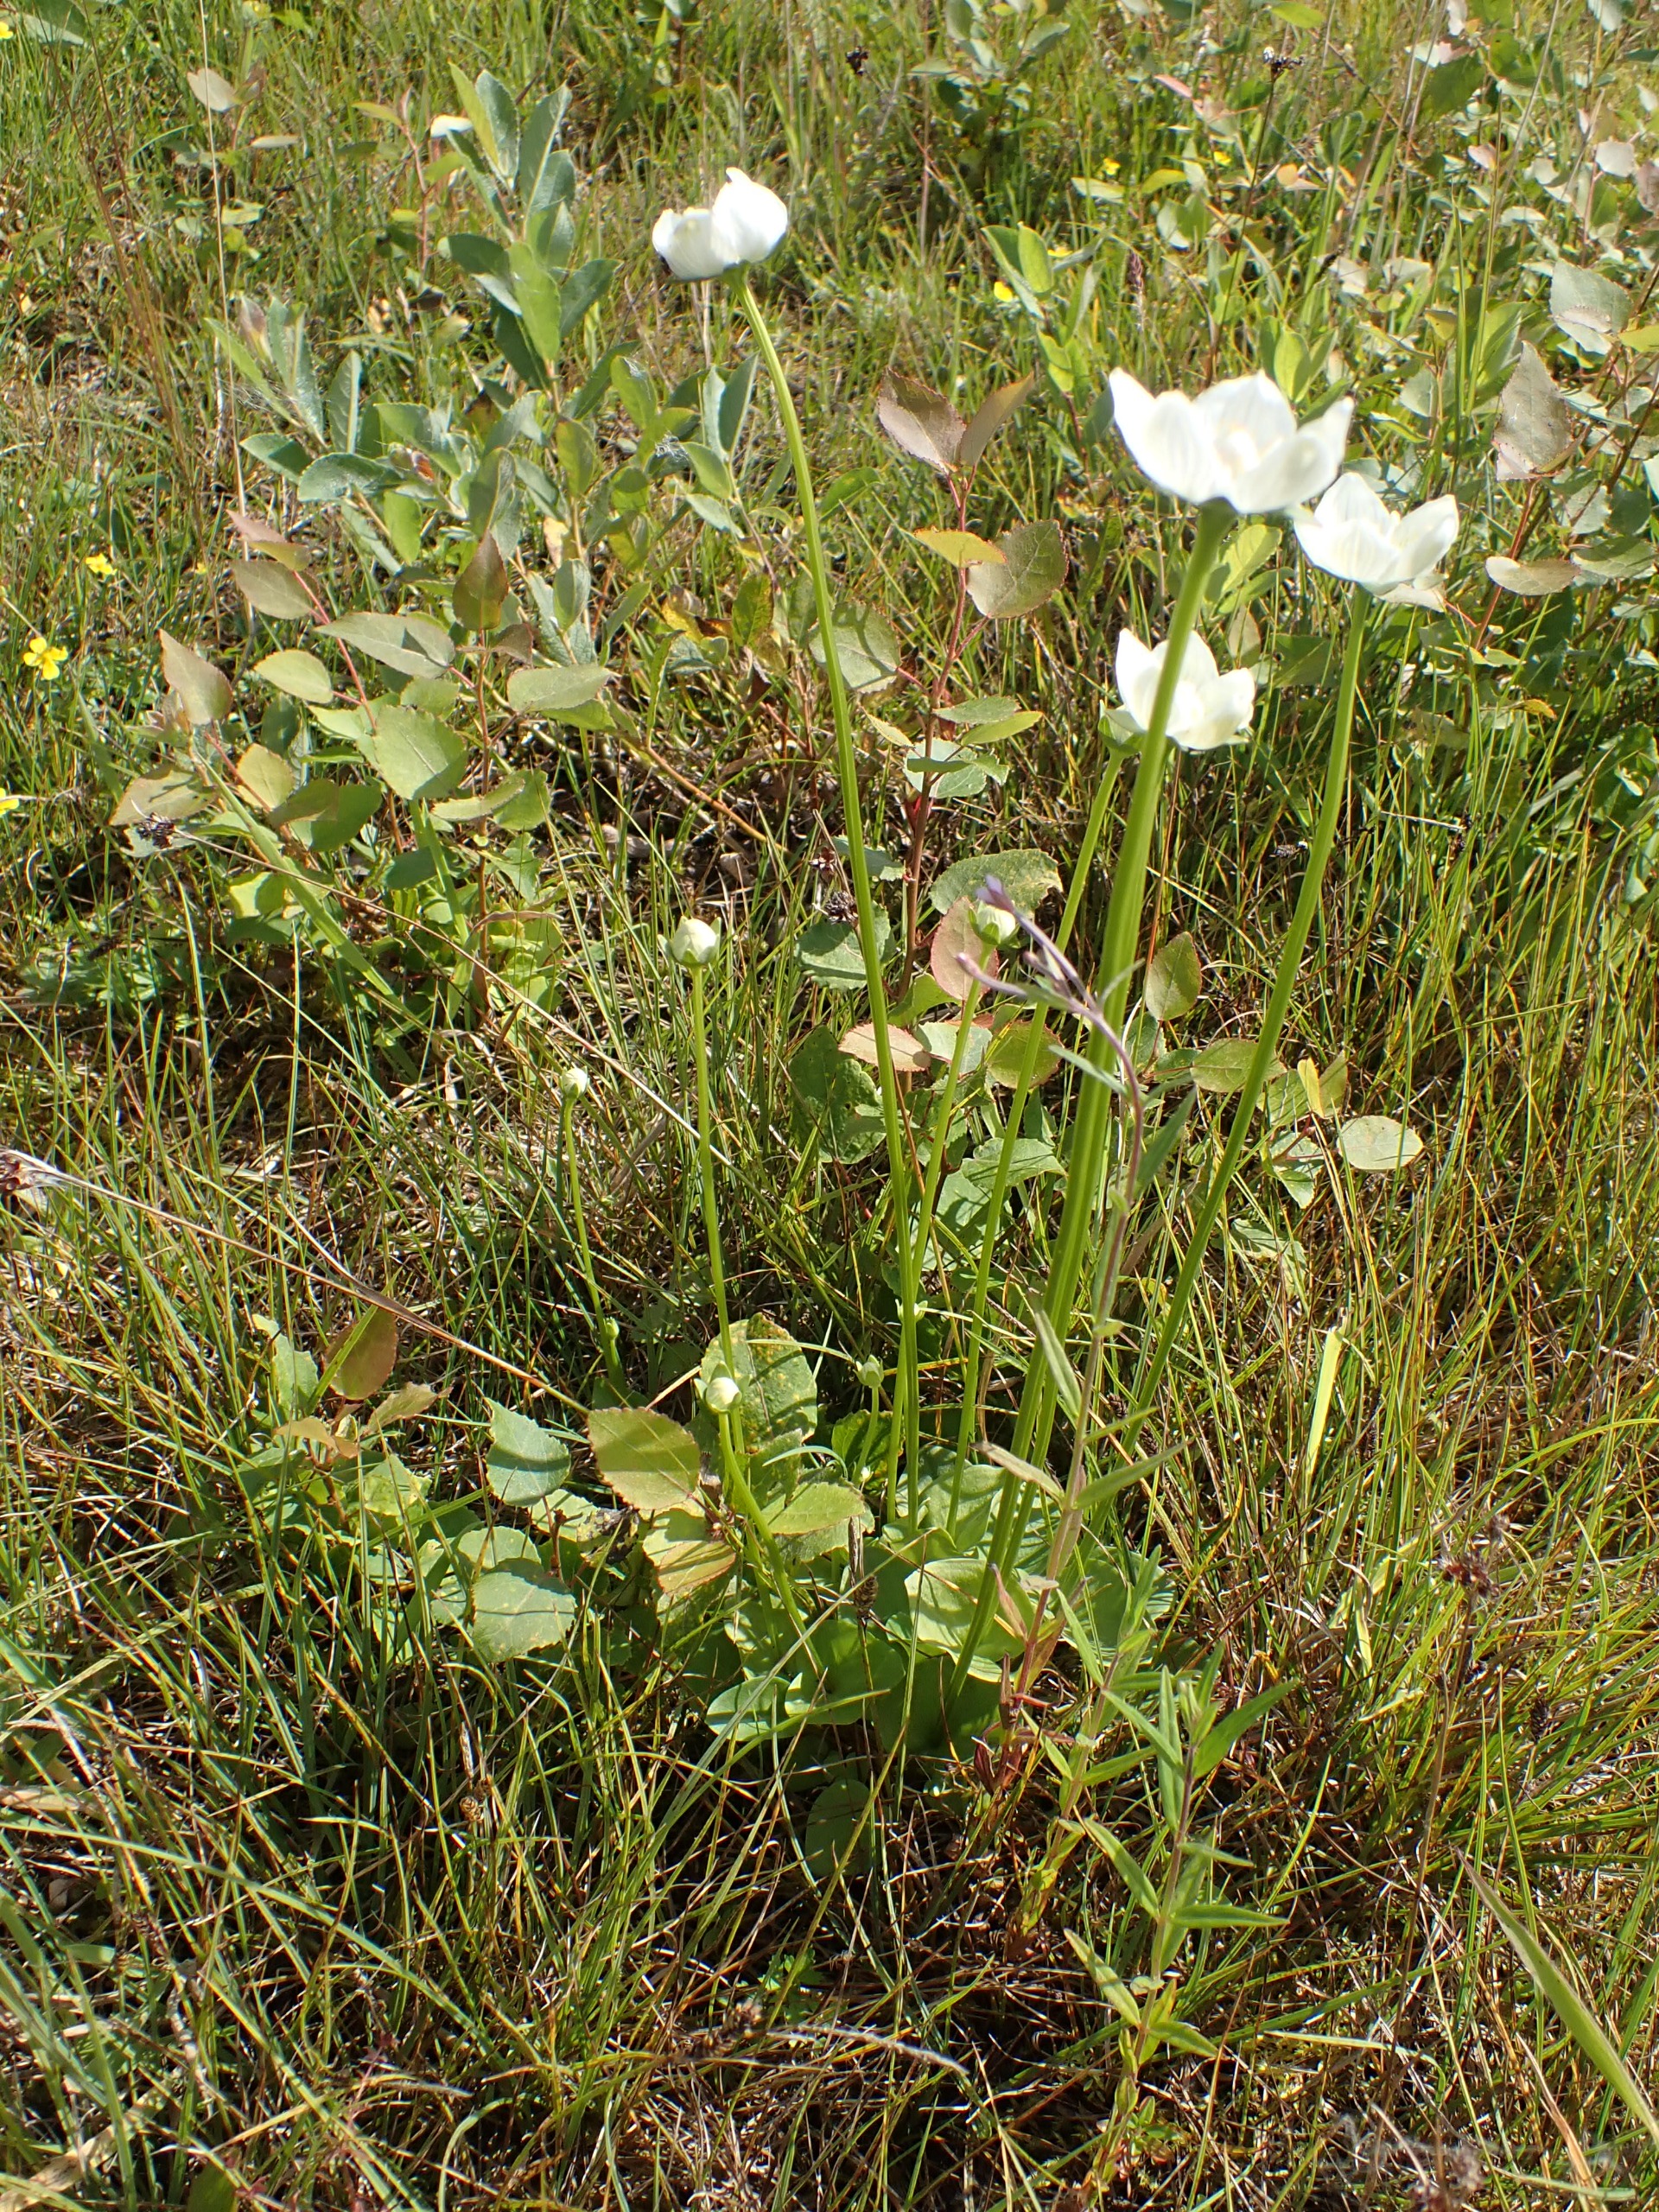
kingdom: Plantae
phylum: Tracheophyta
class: Magnoliopsida
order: Celastrales
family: Parnassiaceae
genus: Parnassia
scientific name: Parnassia palustris
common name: Leverurt
